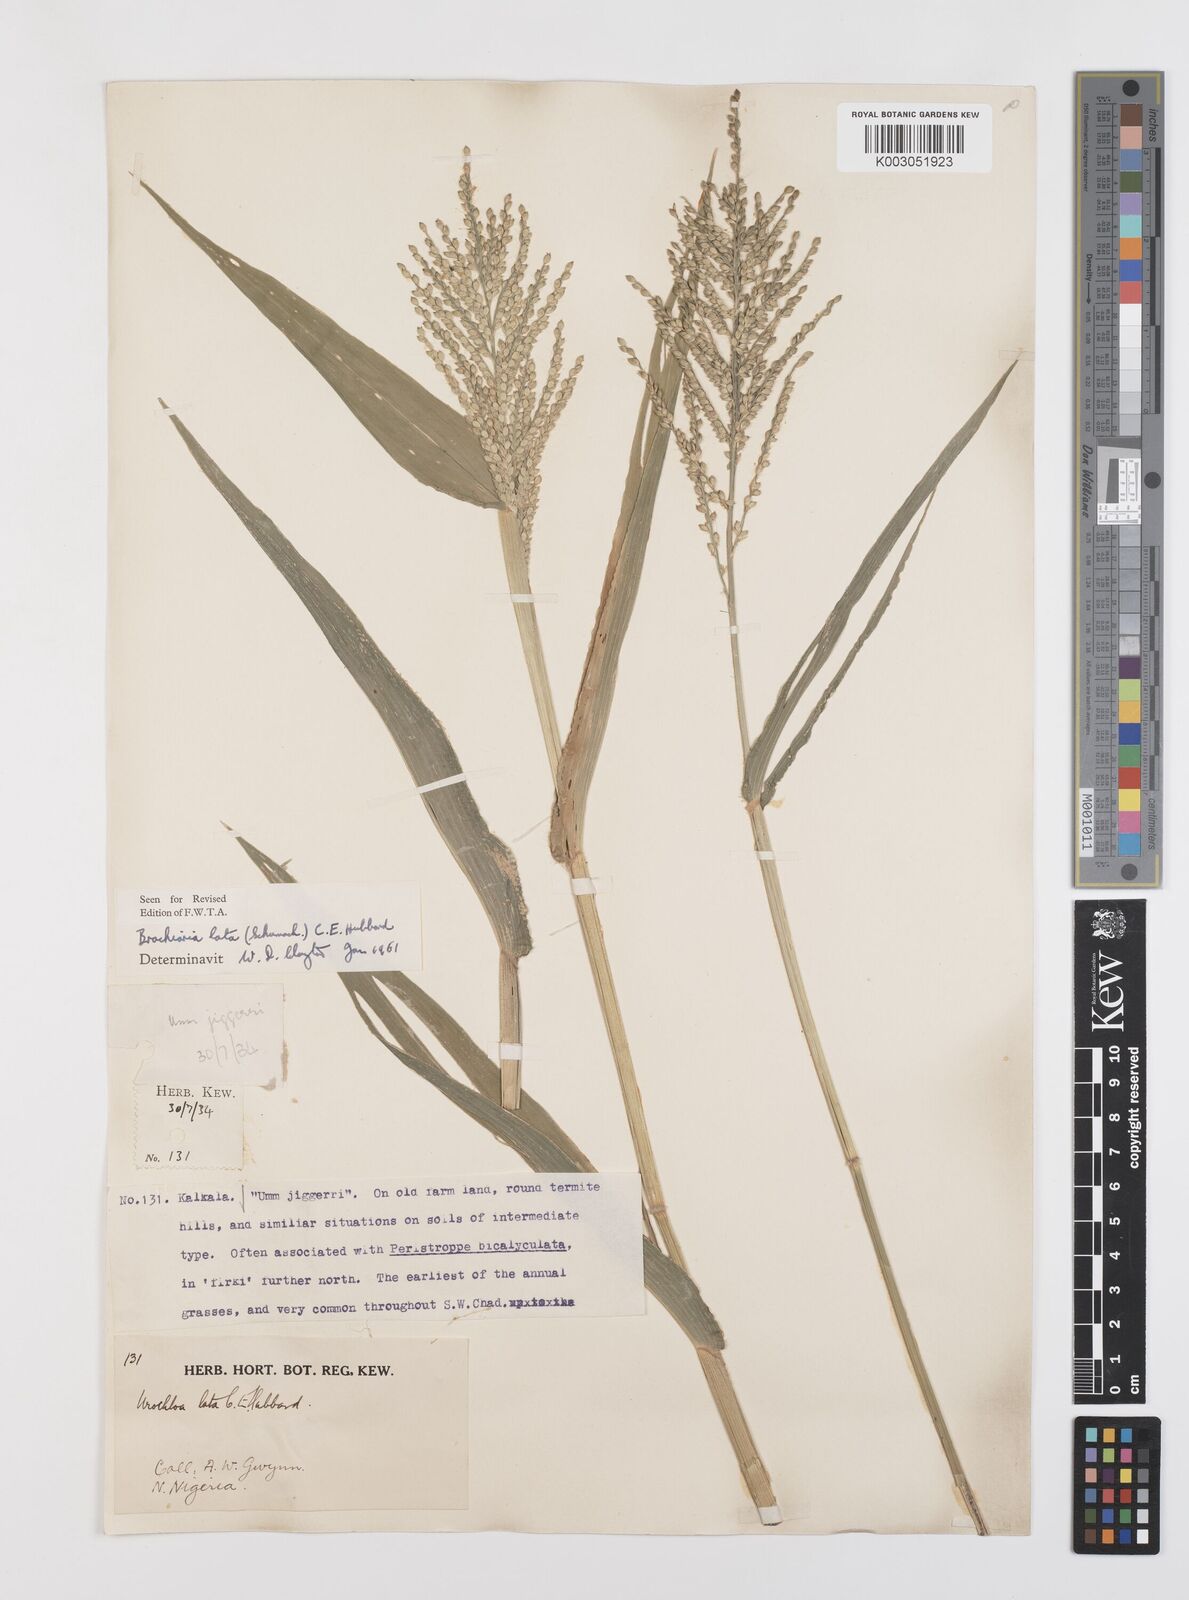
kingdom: Plantae
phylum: Tracheophyta
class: Liliopsida
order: Poales
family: Poaceae
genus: Urochloa
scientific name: Urochloa lata
